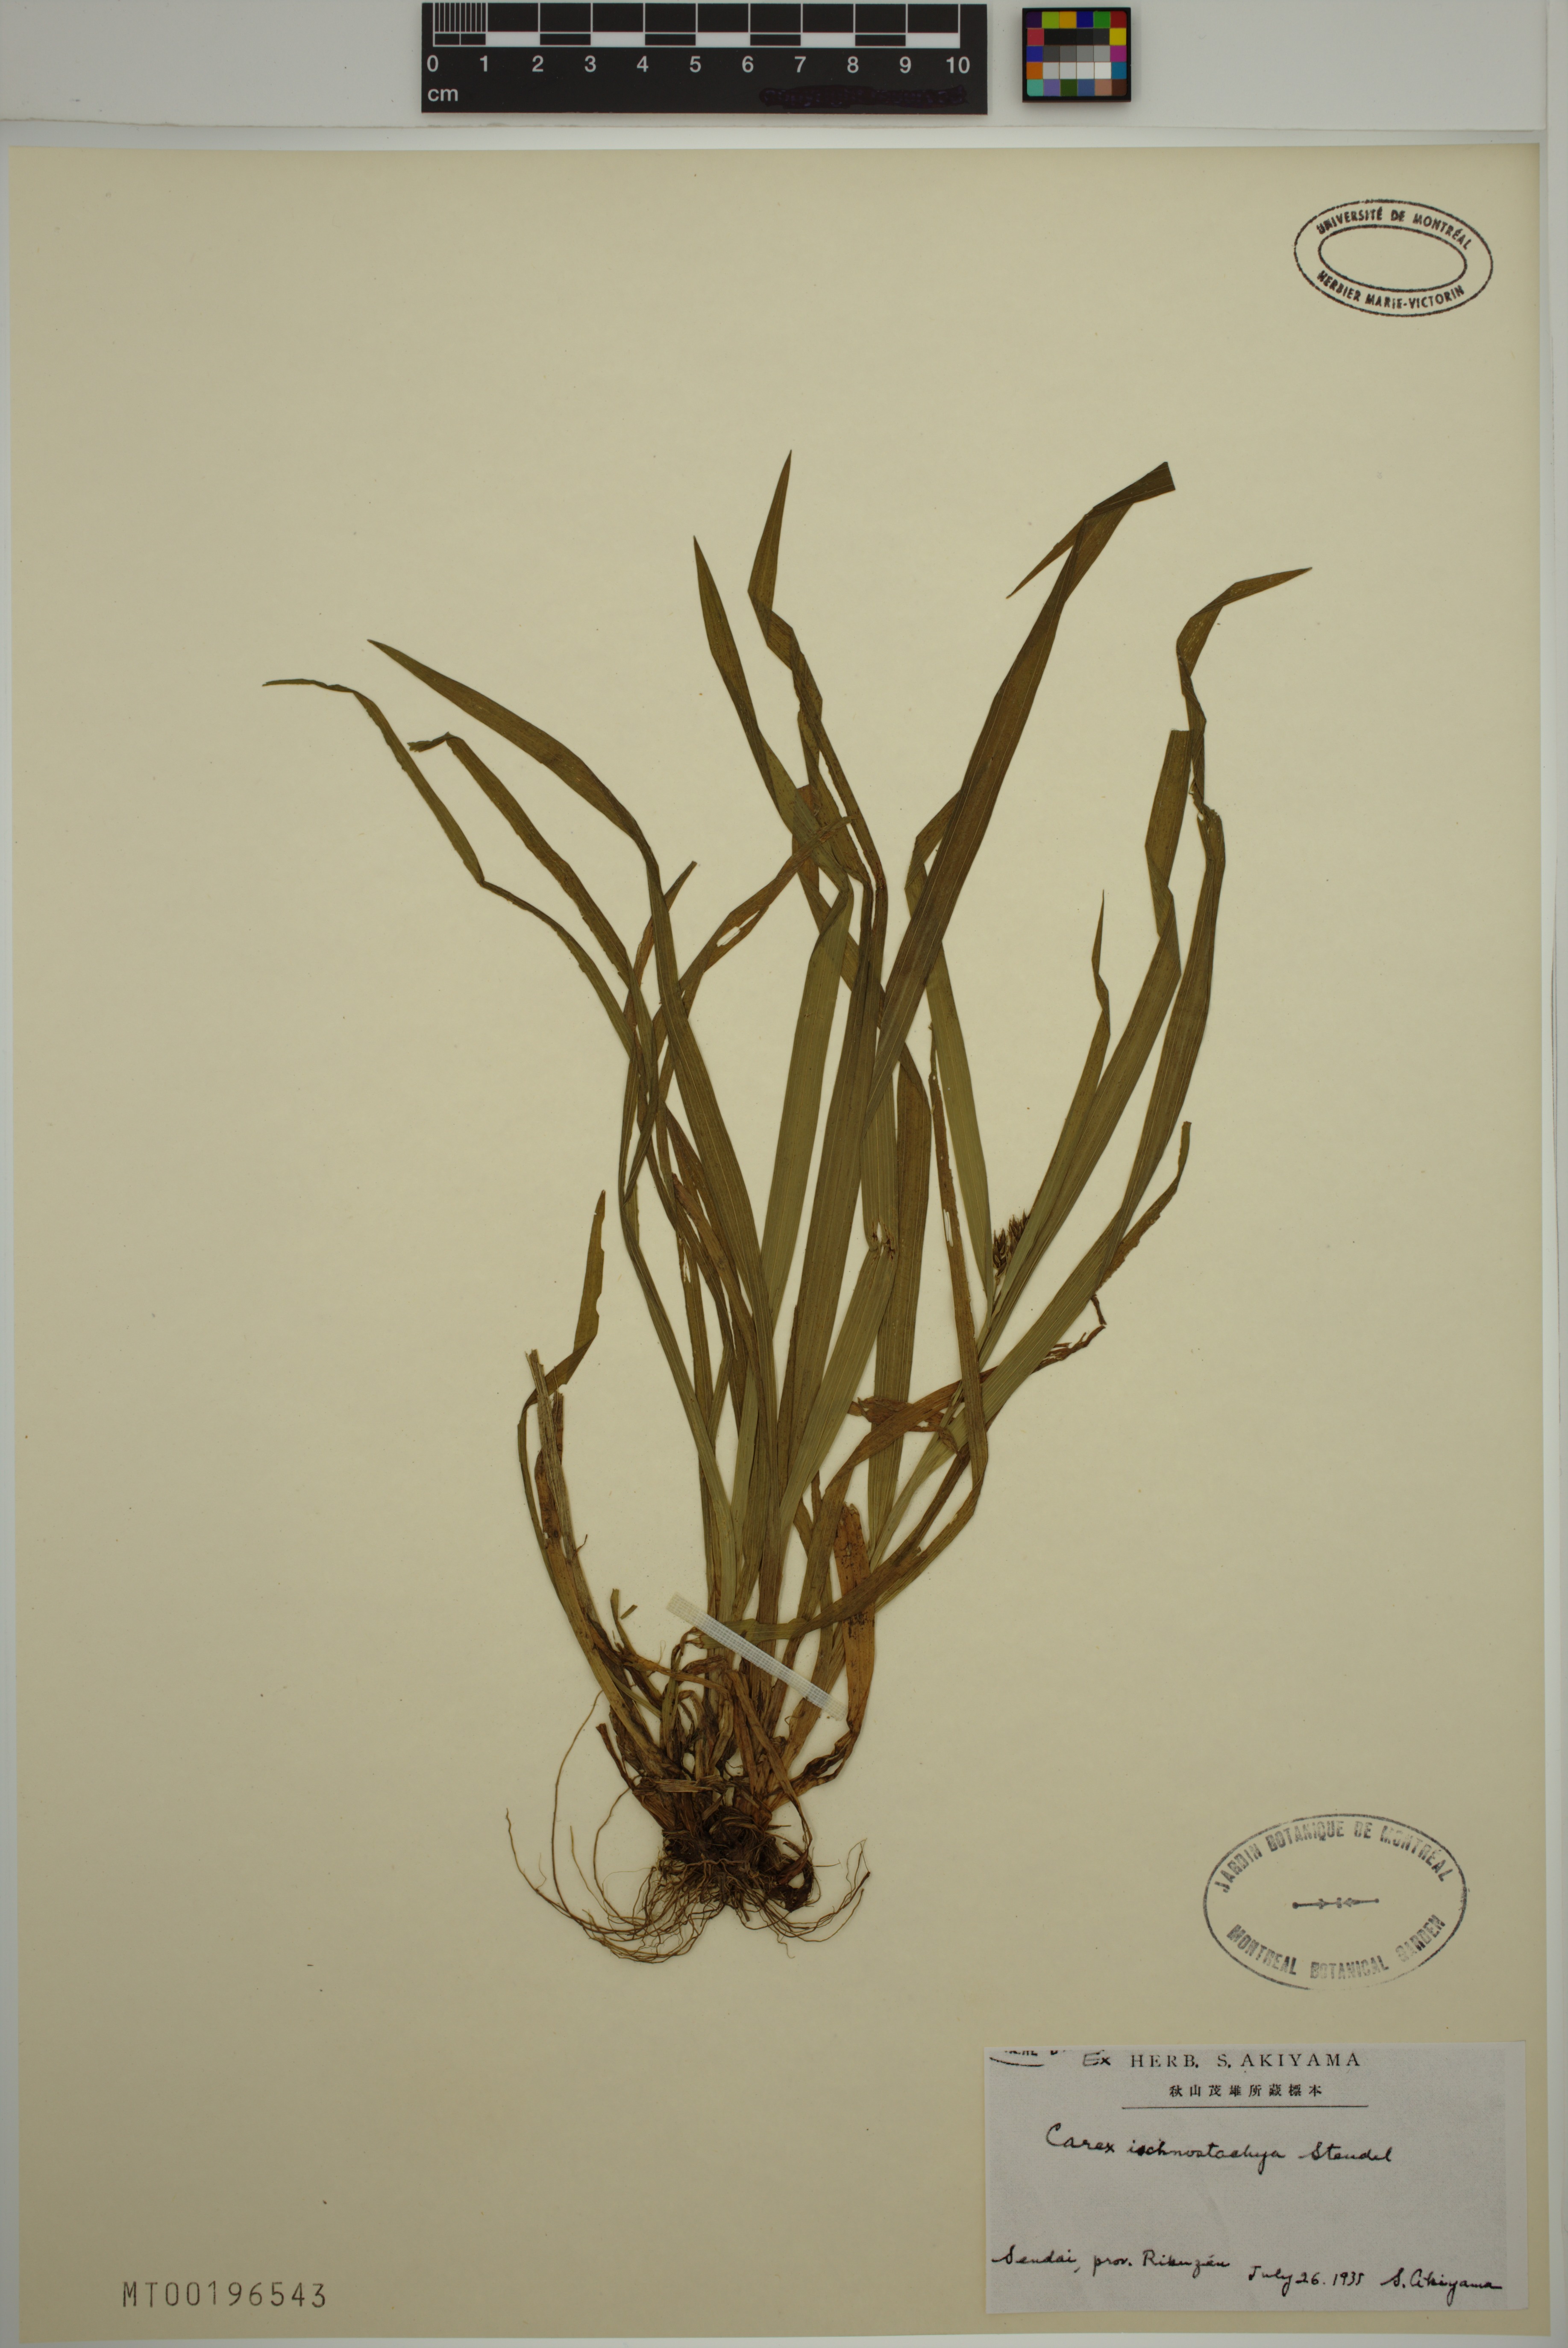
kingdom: Plantae
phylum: Tracheophyta
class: Liliopsida
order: Poales
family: Cyperaceae
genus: Carex
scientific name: Carex ischnostachya
